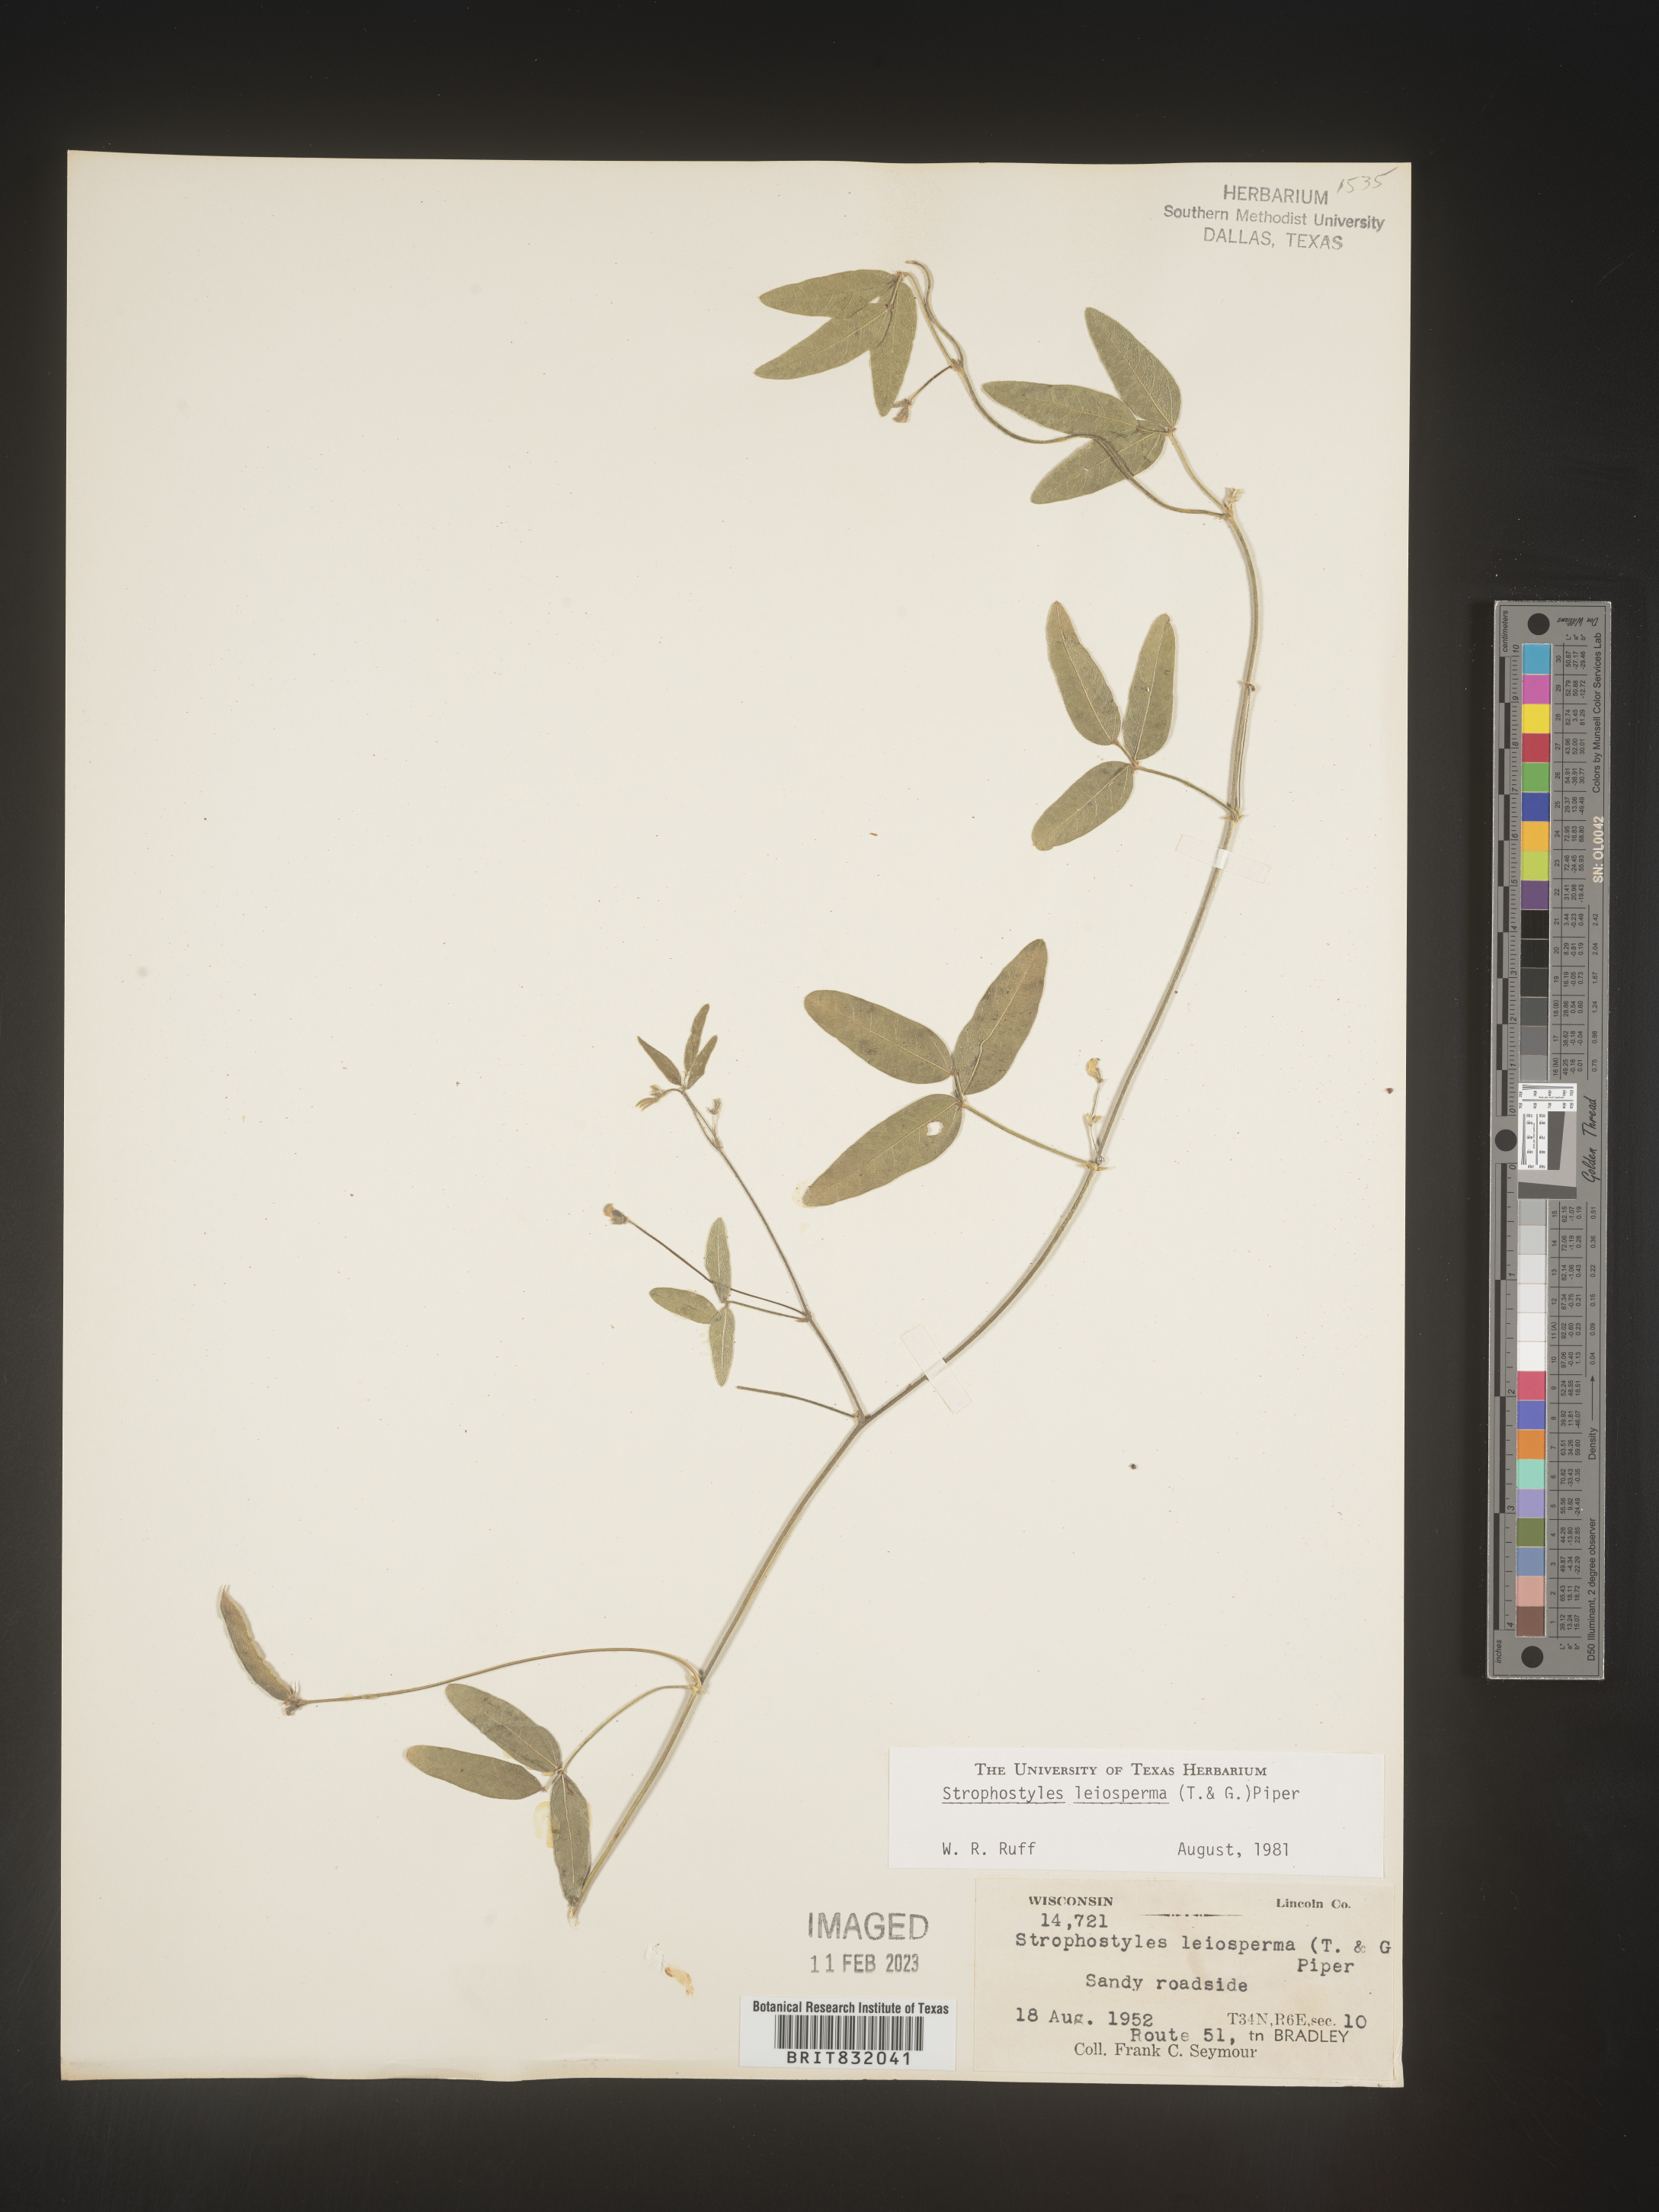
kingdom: Plantae
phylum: Tracheophyta
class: Magnoliopsida
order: Fabales
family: Fabaceae
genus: Strophostyles
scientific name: Strophostyles leiosperma
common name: Smooth-seed wild bean
